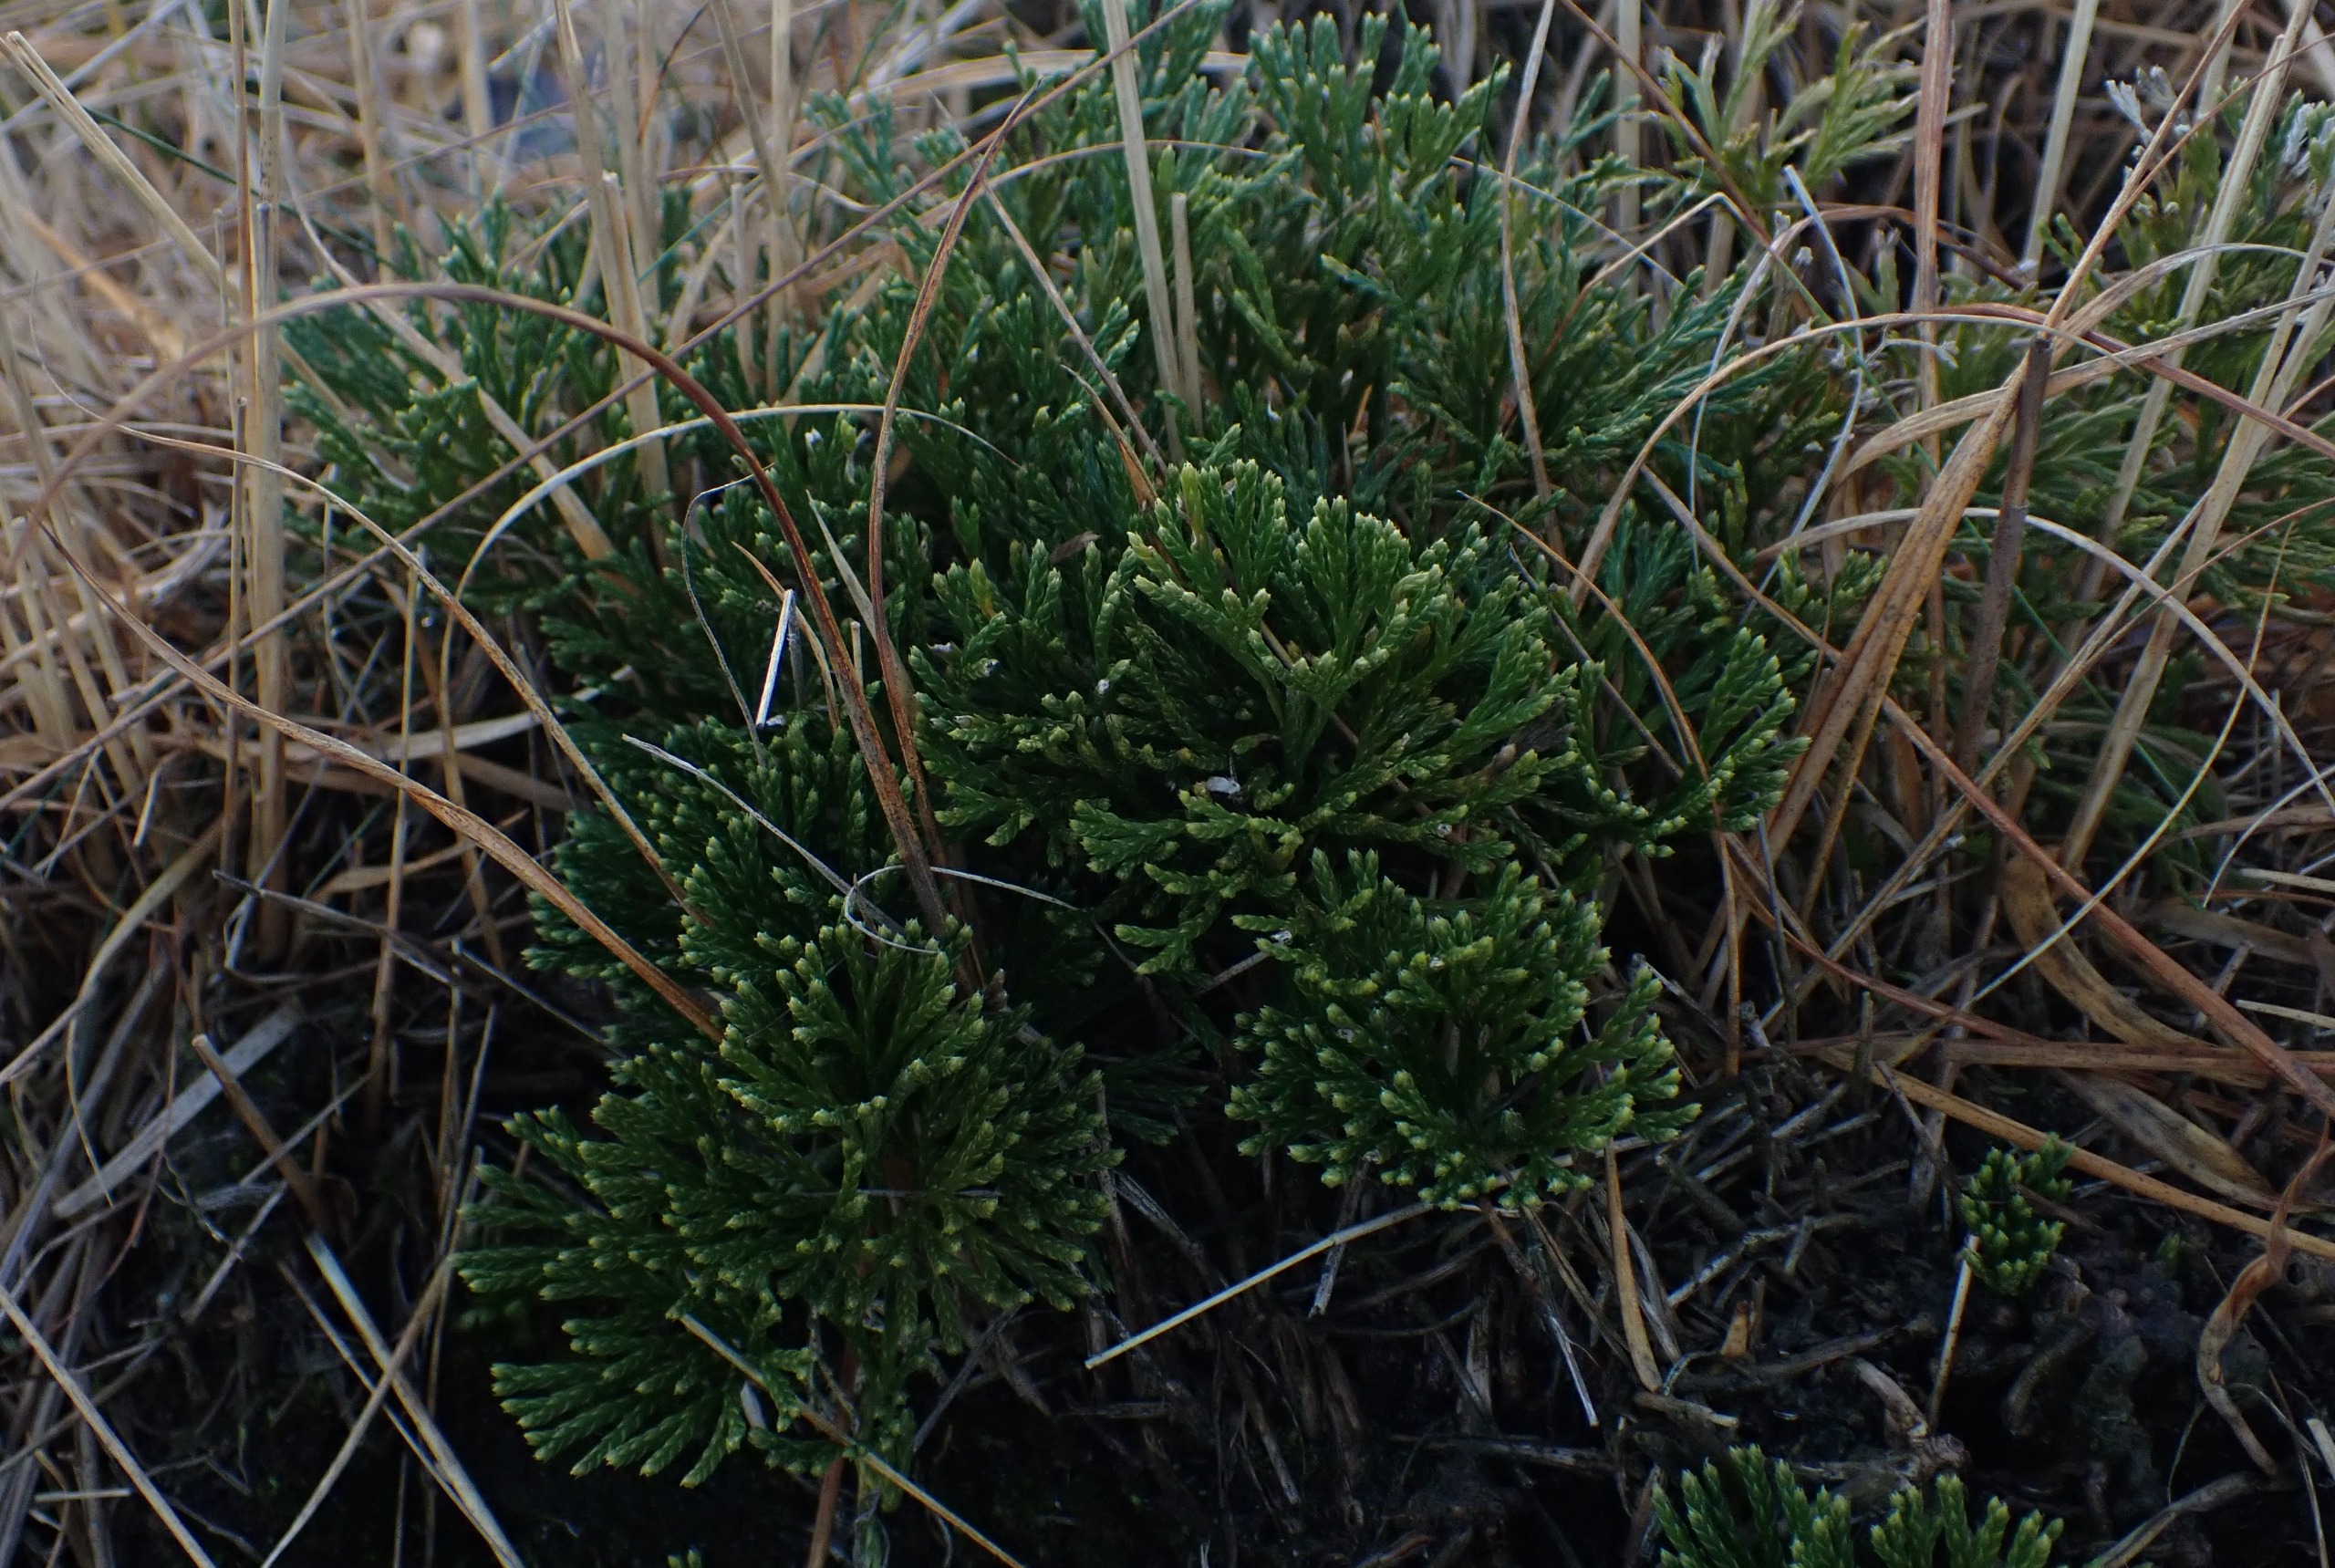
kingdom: Plantae
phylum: Tracheophyta
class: Lycopodiopsida
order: Lycopodiales
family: Lycopodiaceae
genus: Diphasiastrum
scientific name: Diphasiastrum tristachyum
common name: Cypres-ulvefod
